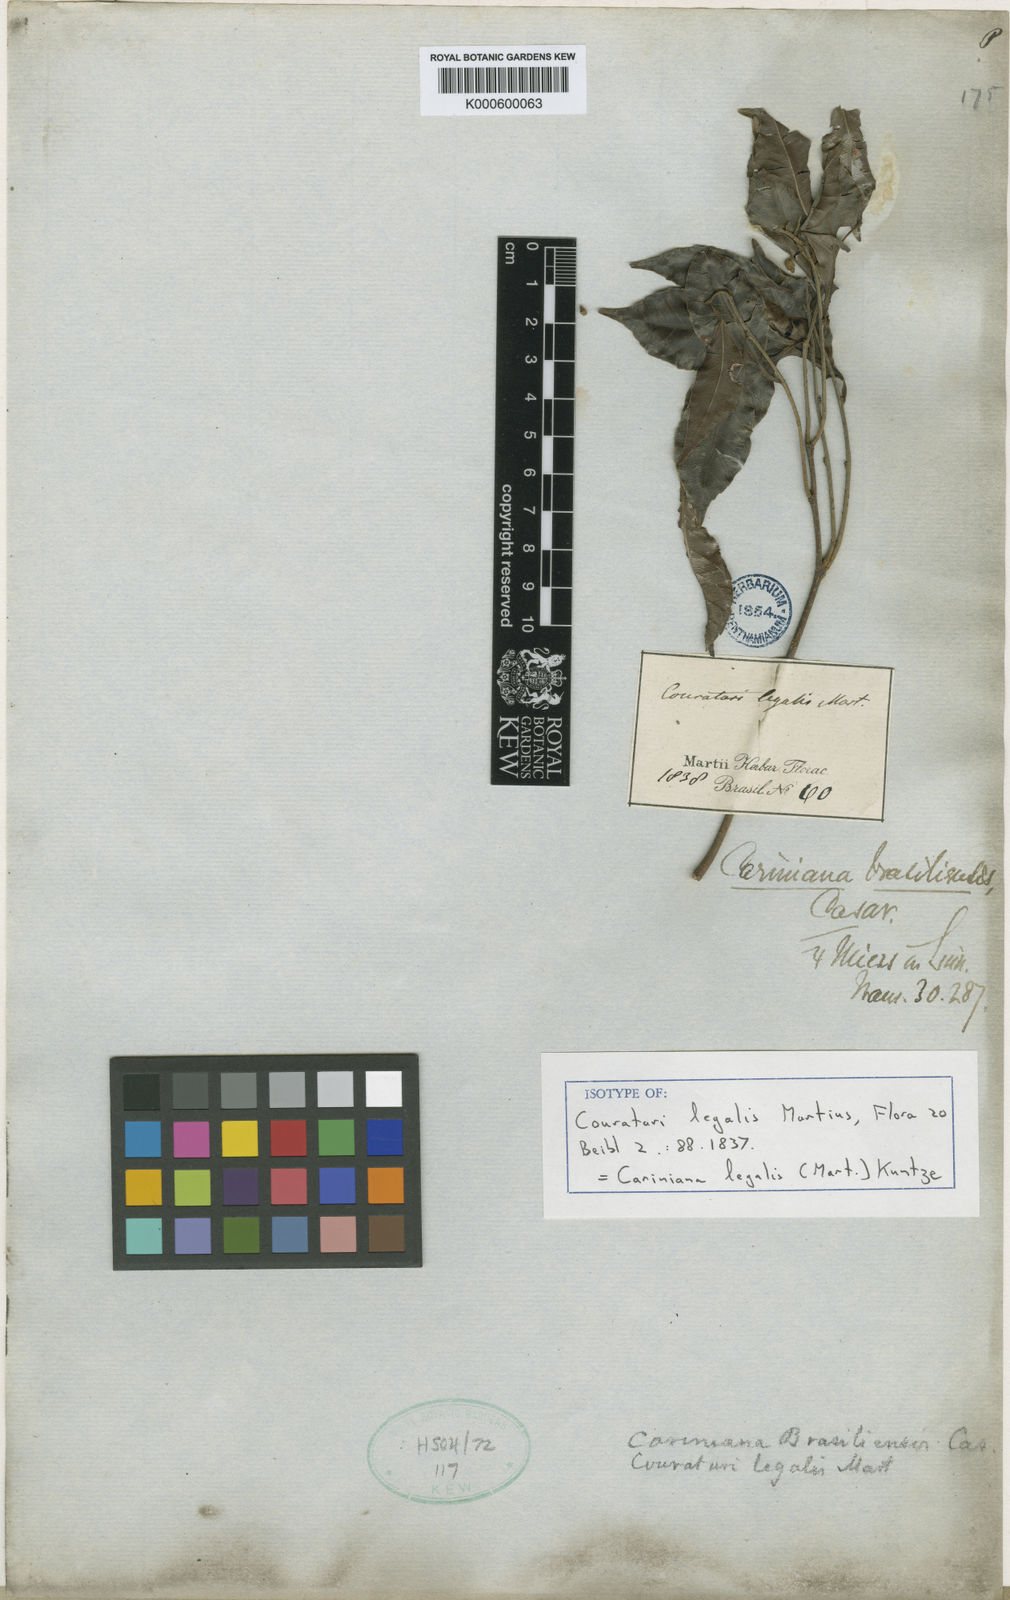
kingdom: Plantae
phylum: Tracheophyta
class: Magnoliopsida
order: Ericales
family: Lecythidaceae
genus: Cariniana
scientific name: Cariniana legalis
